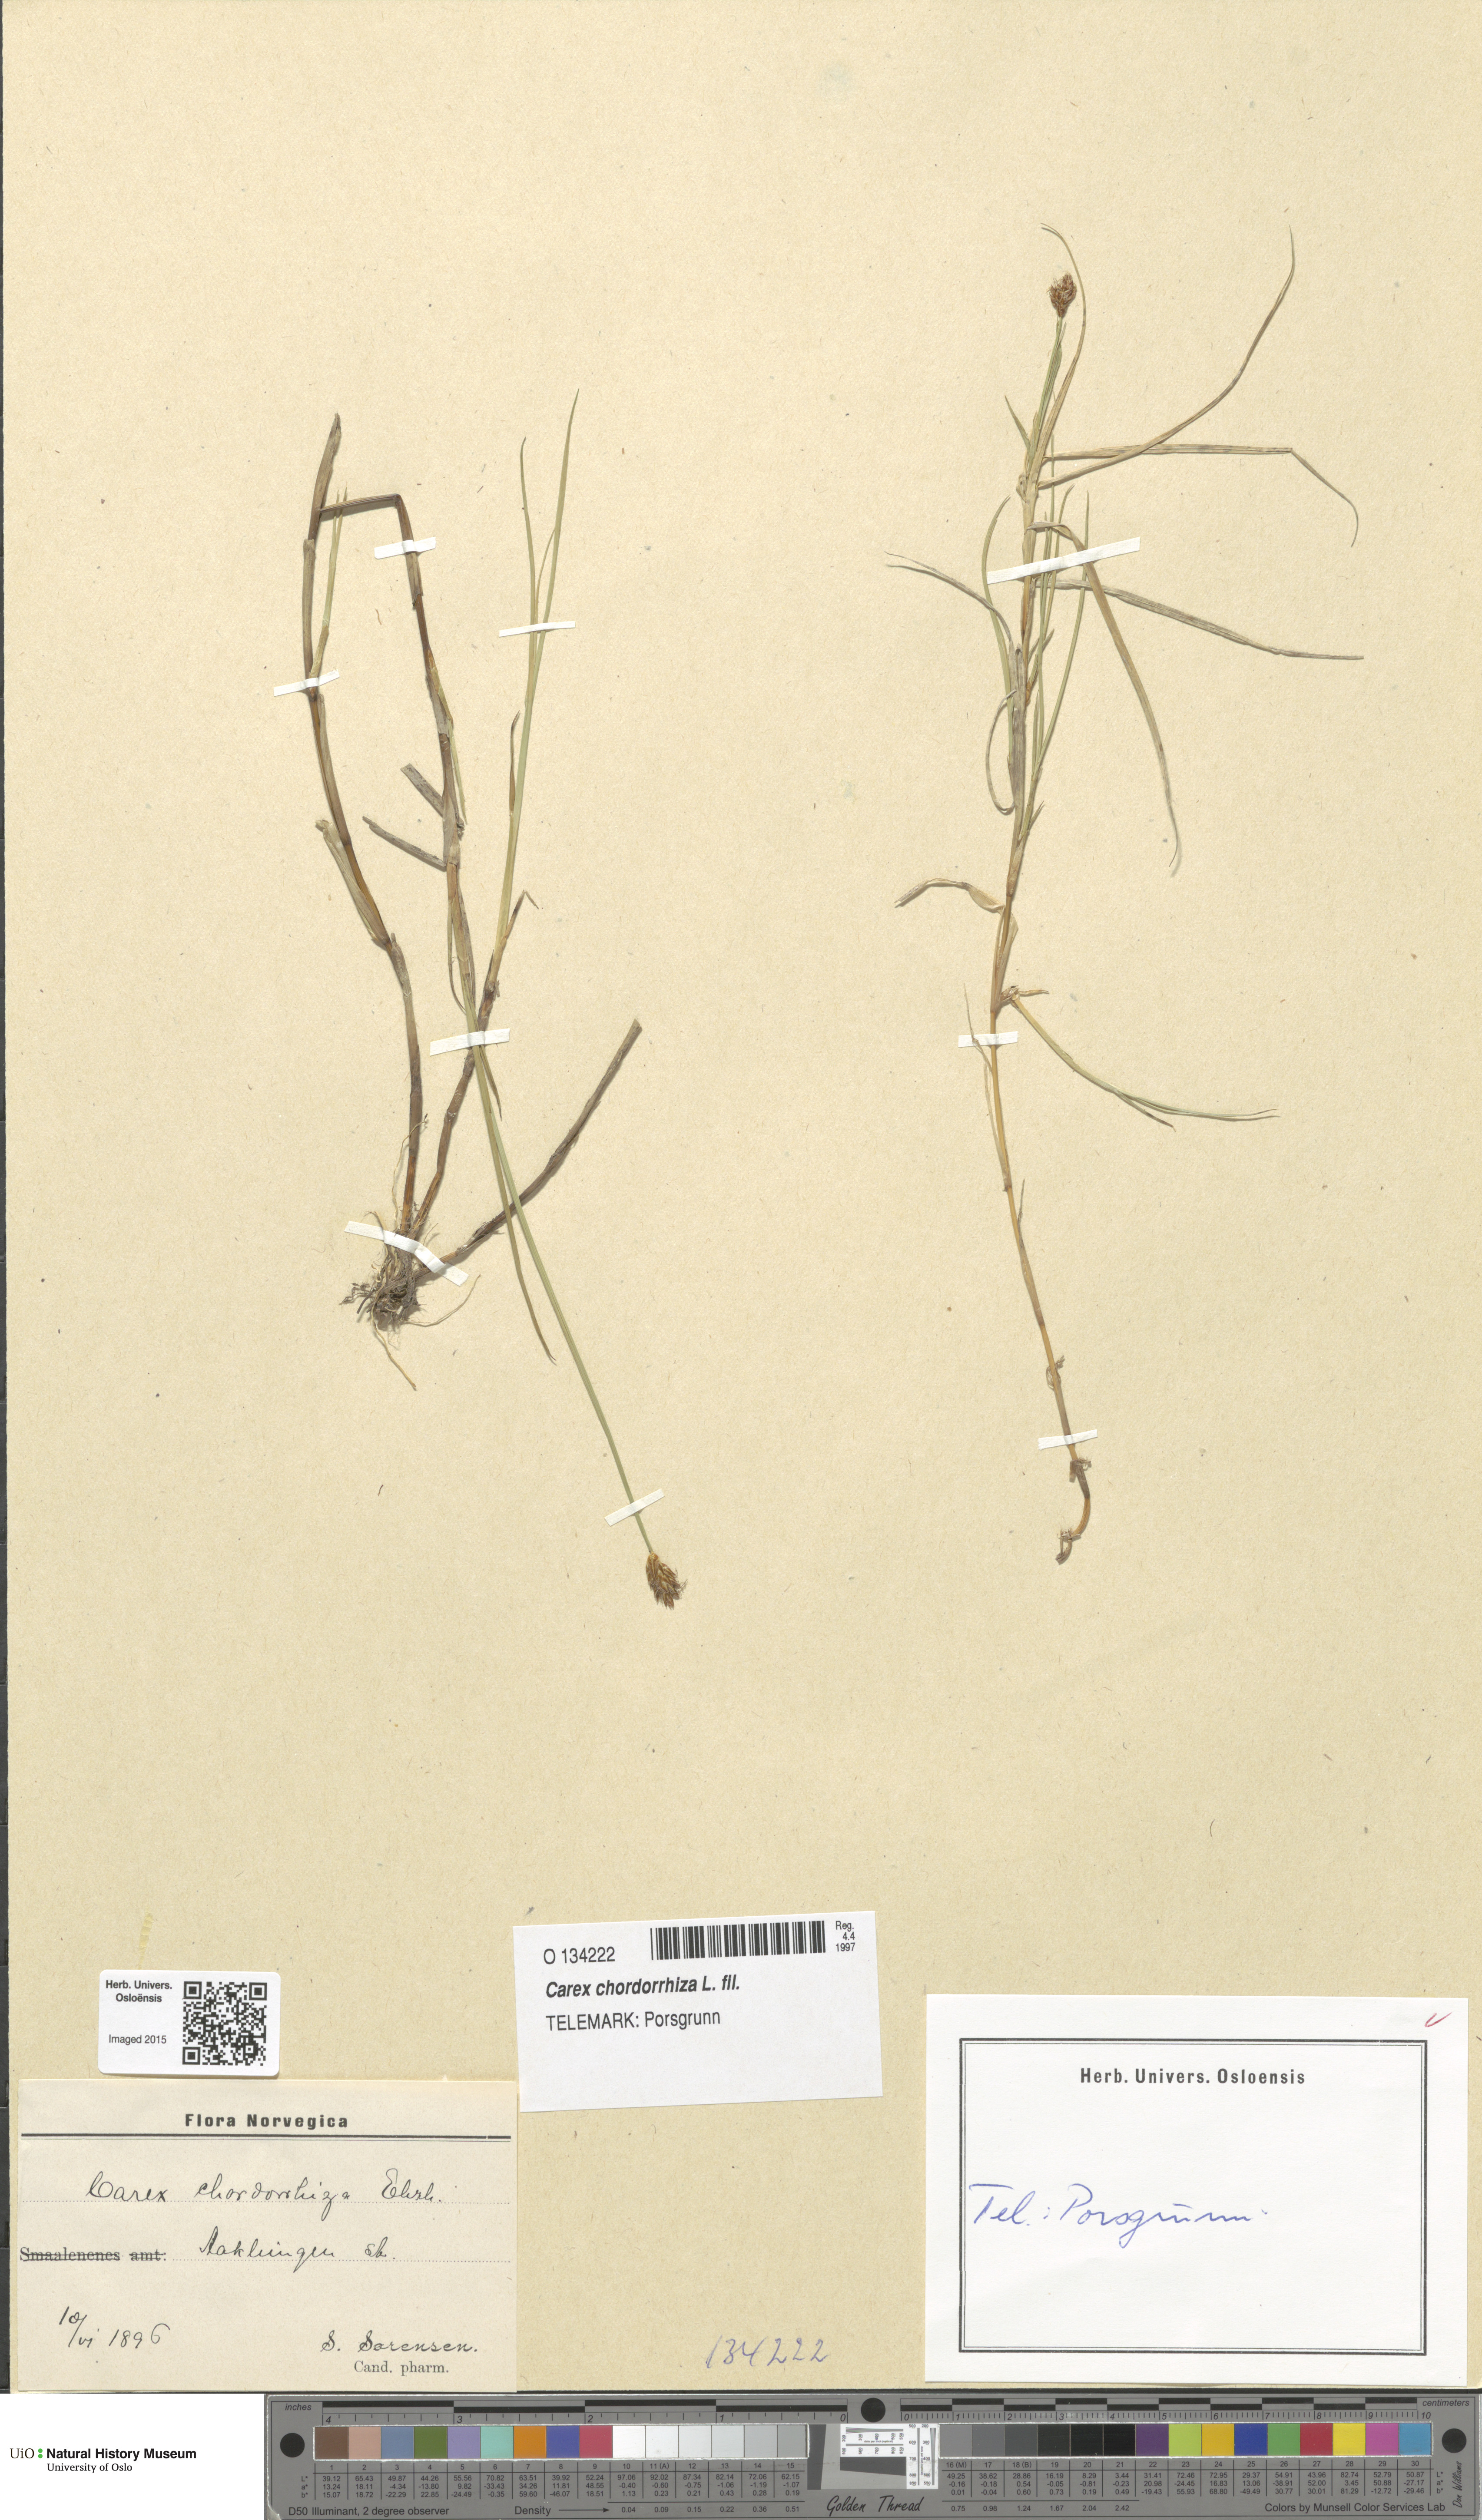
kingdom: Plantae
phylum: Tracheophyta
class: Liliopsida
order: Poales
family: Cyperaceae
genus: Carex
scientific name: Carex chordorrhiza
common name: String sedge
